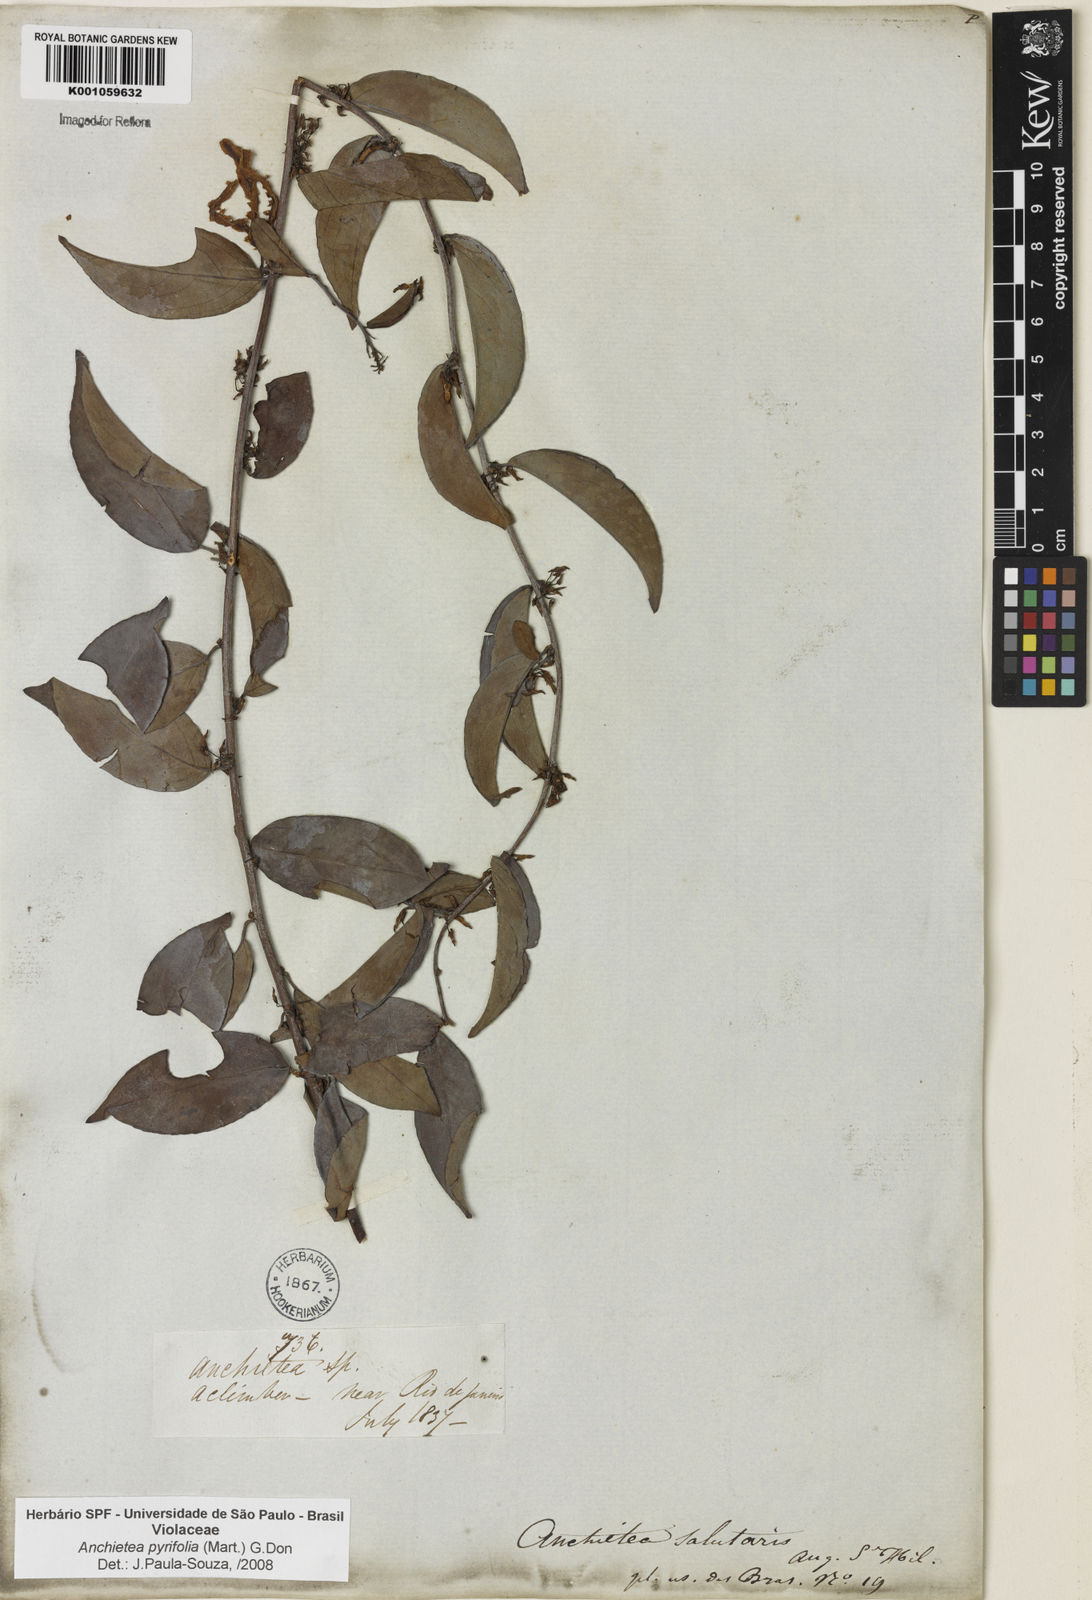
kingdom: Plantae
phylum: Tracheophyta
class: Magnoliopsida
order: Malpighiales
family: Violaceae
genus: Anchietea
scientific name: Anchietea pyrifolia
